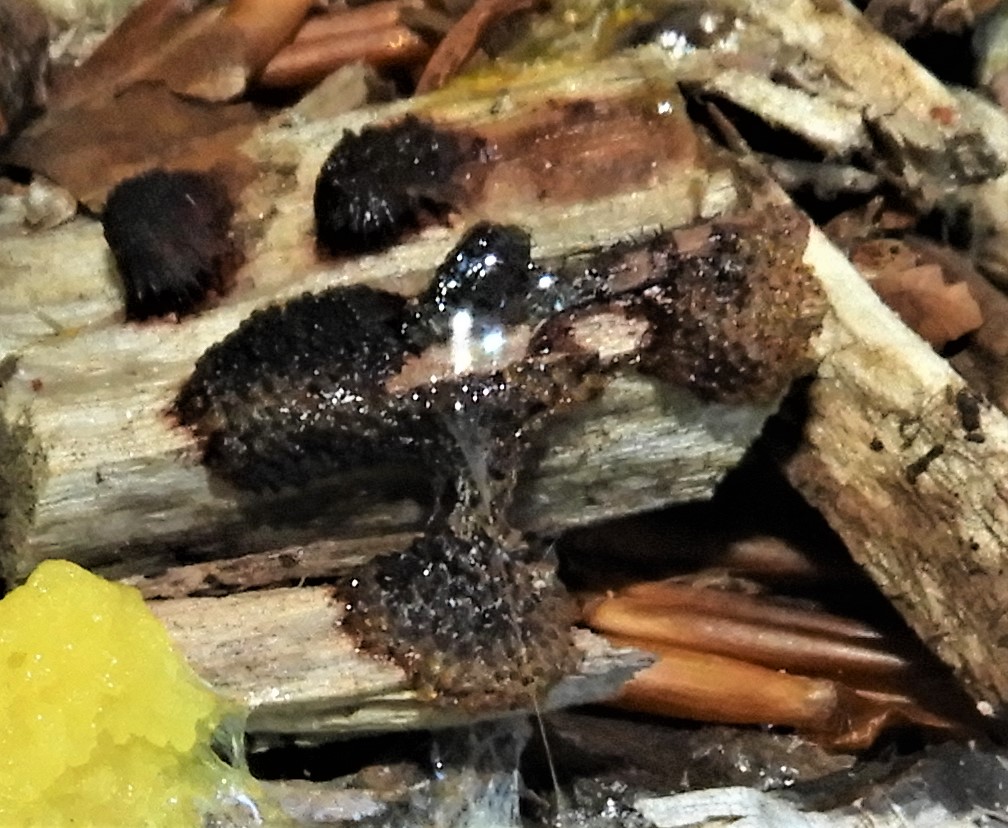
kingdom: Protozoa
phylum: Mycetozoa
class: Myxomycetes
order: Stemonitidales
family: Stemonitidaceae
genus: Stemonitis
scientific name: Stemonitis axifera
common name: rødbrun støvkølle
